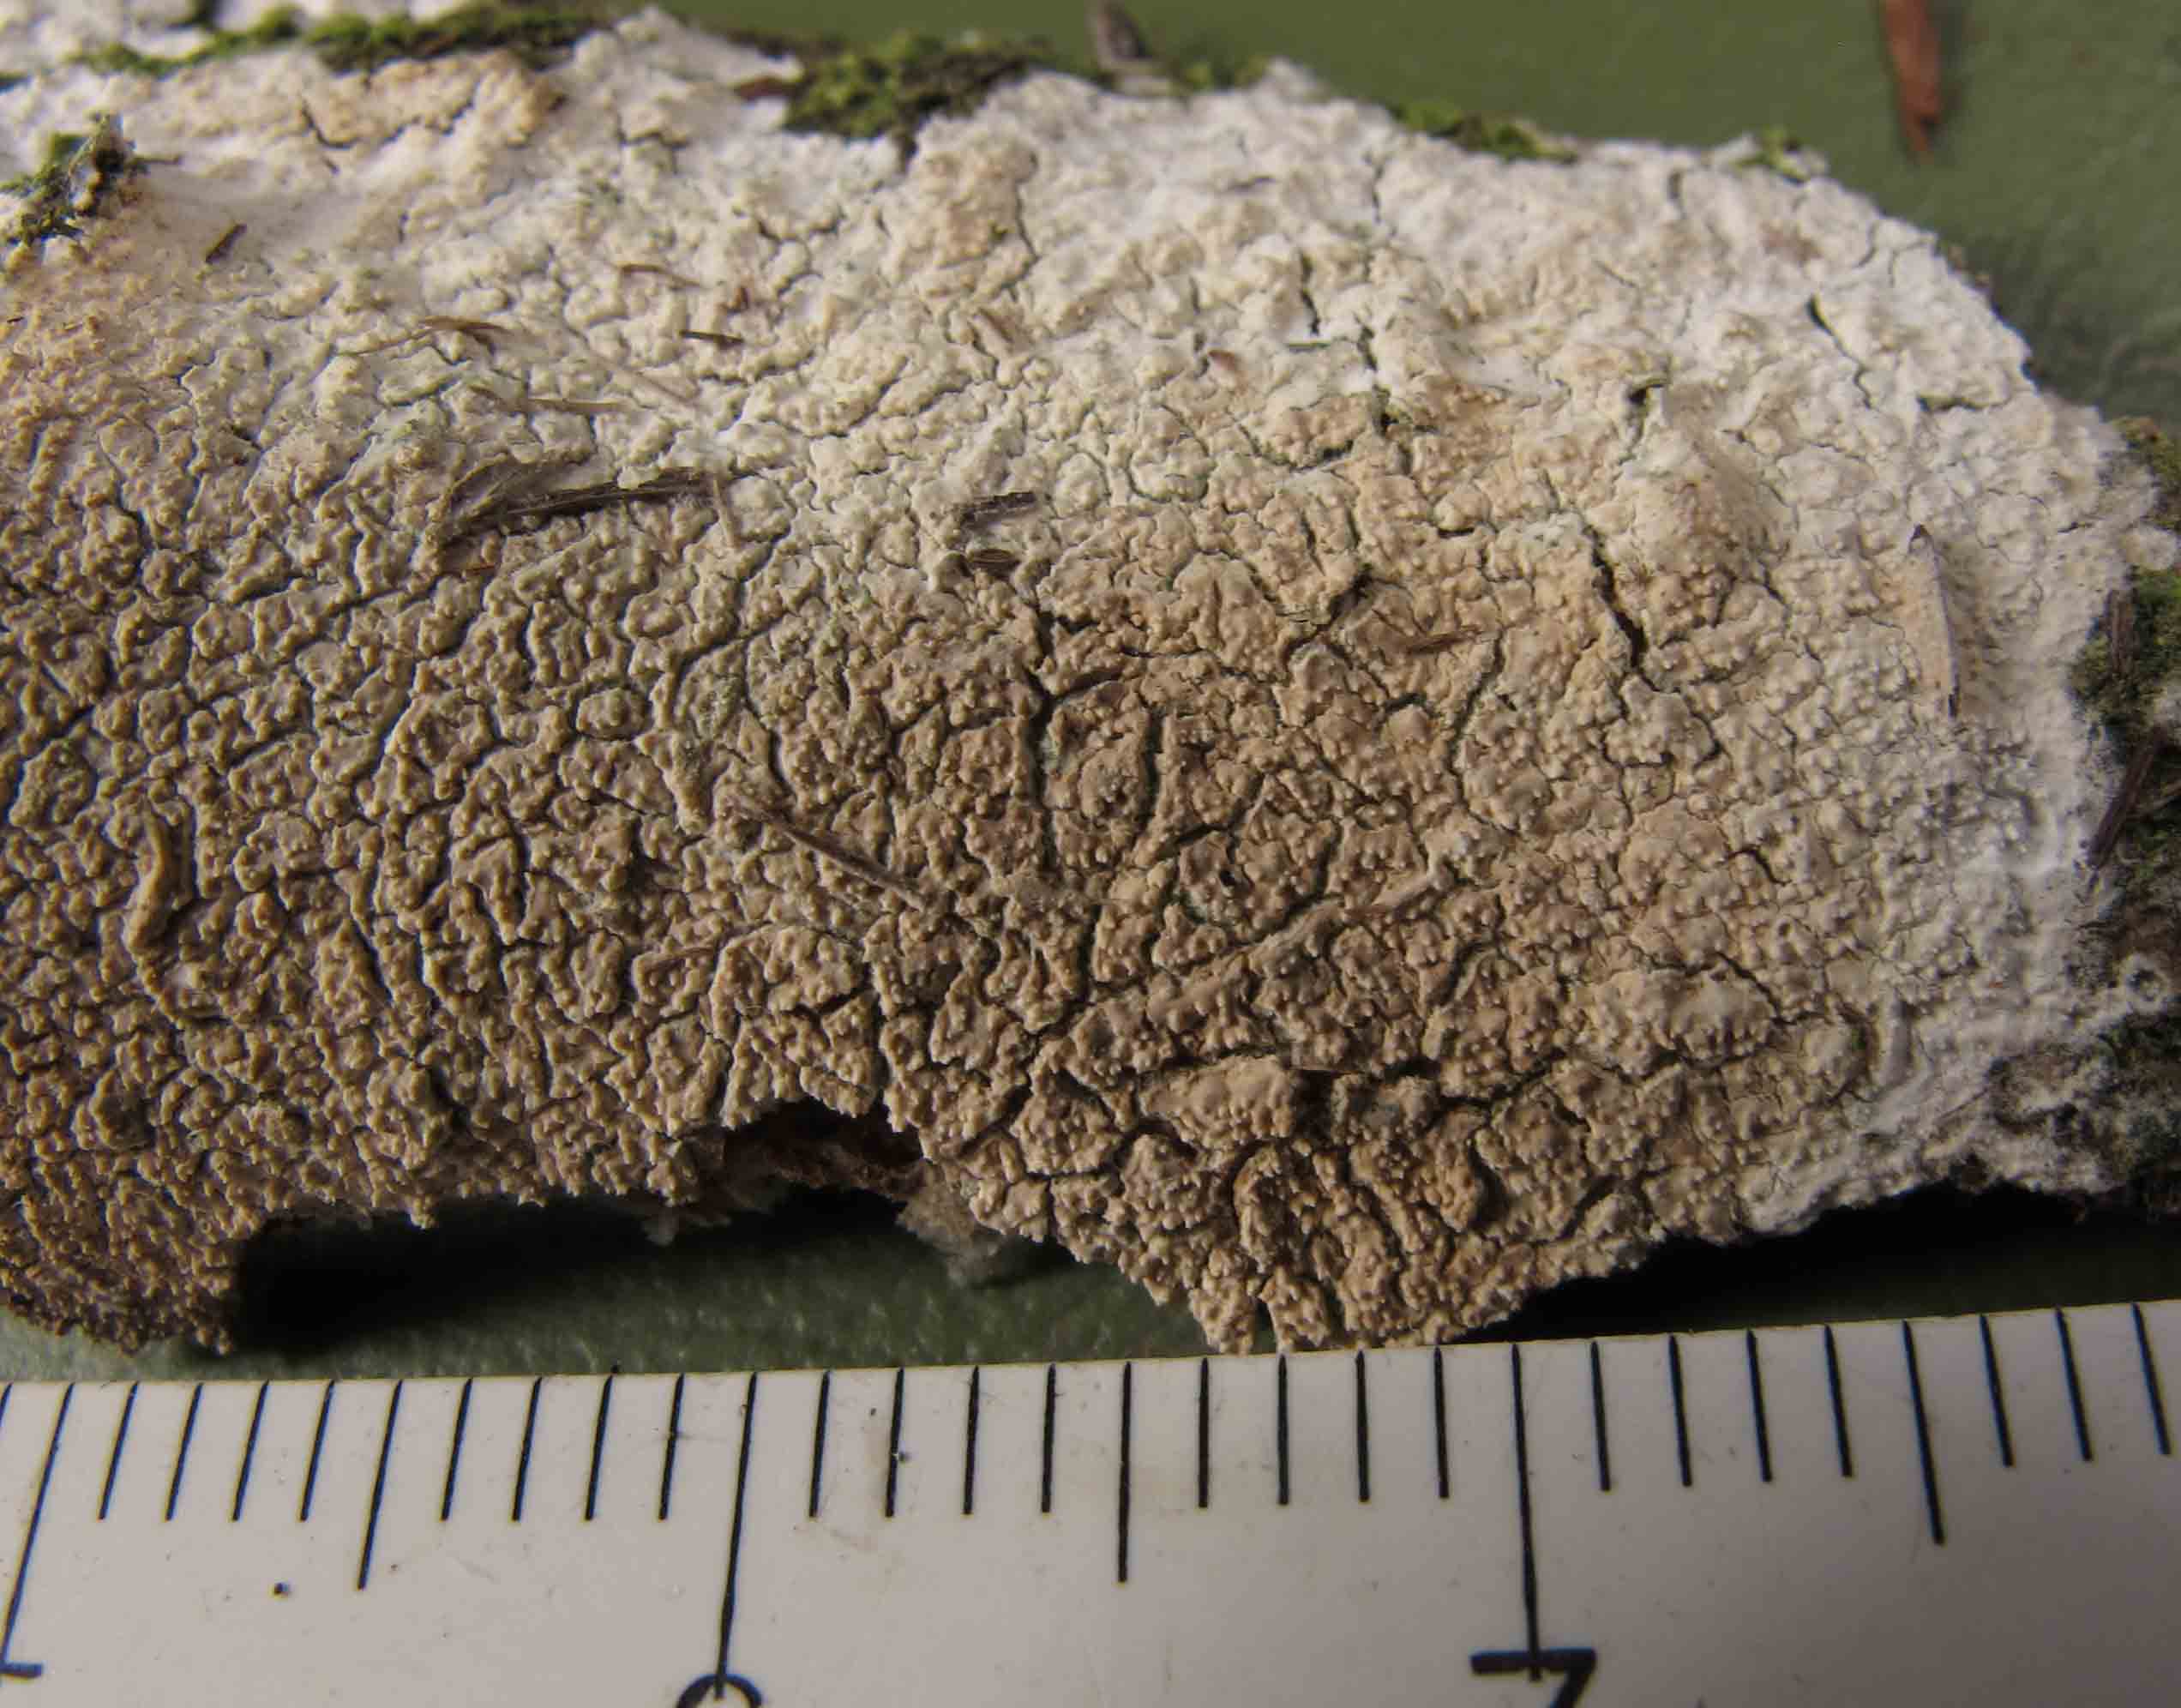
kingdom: Fungi
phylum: Basidiomycota
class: Agaricomycetes
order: Corticiales
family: Corticiaceae
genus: Lyomyces
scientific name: Lyomyces crustosus
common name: vortet hyldehinde
